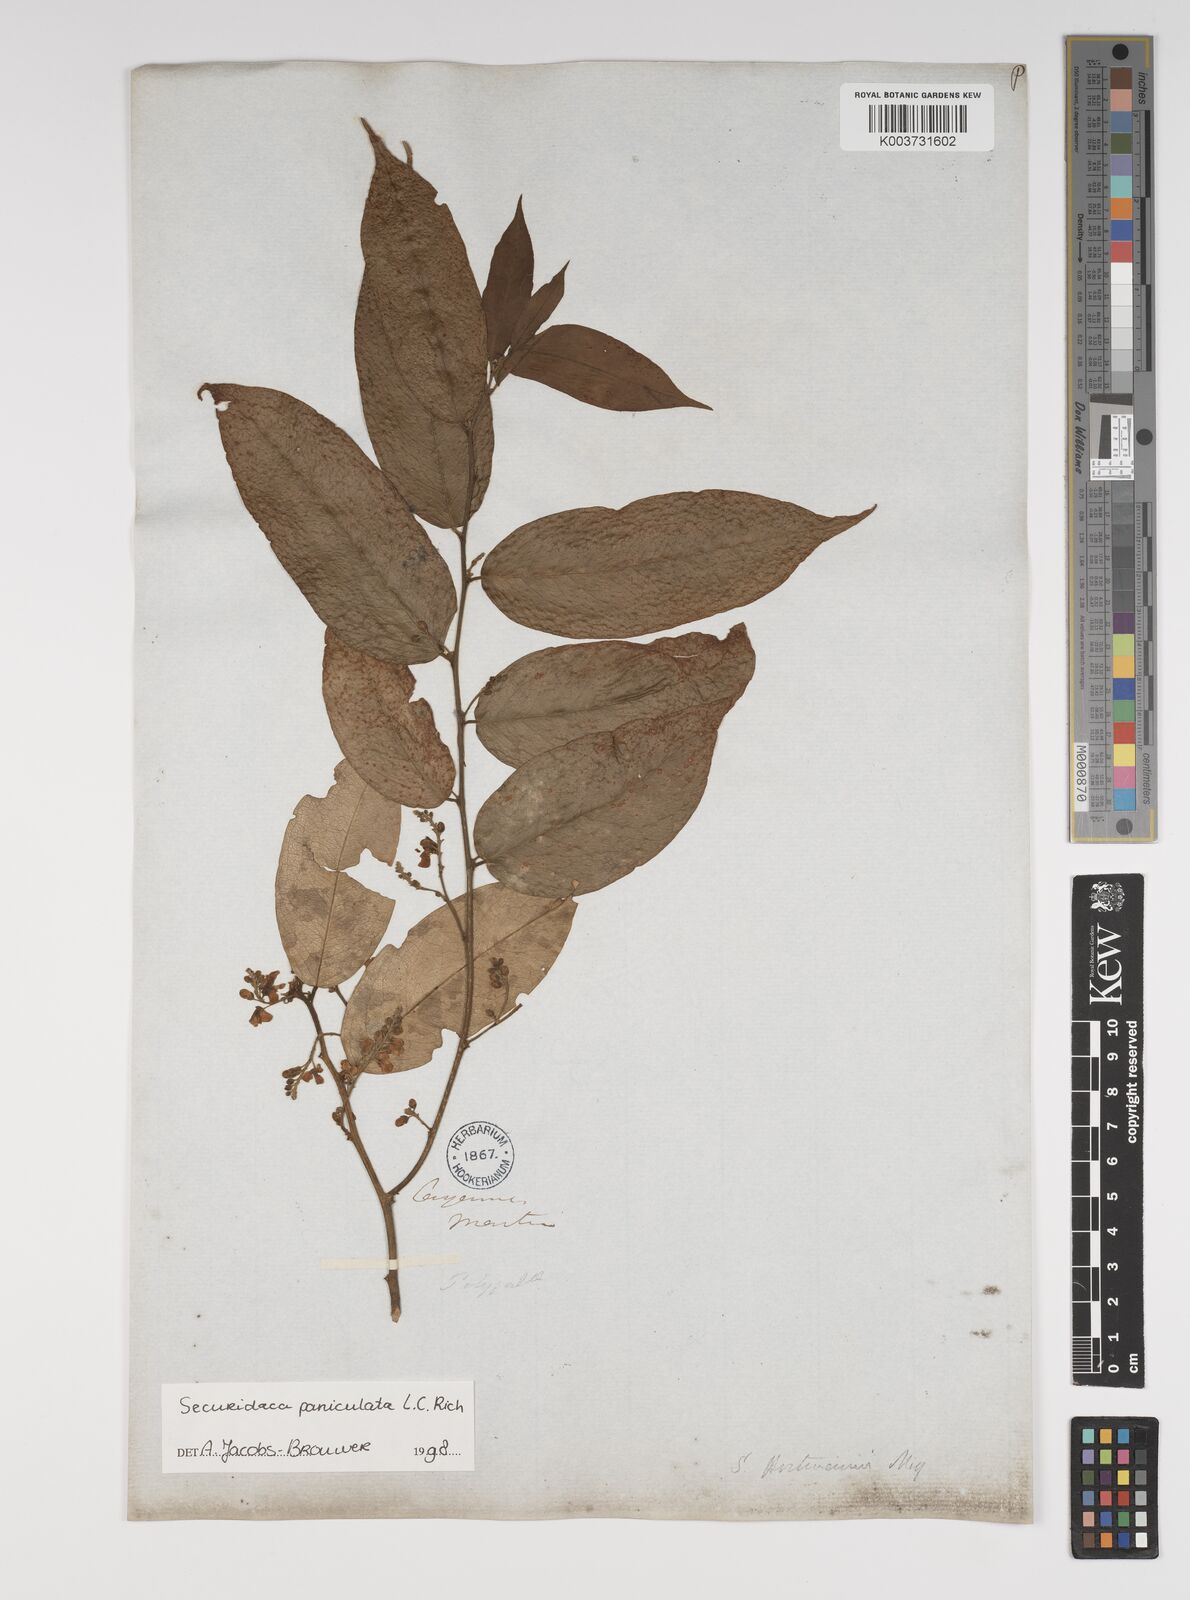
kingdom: Plantae
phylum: Tracheophyta
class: Magnoliopsida
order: Fabales
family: Polygalaceae
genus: Securidaca
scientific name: Securidaca paniculata
